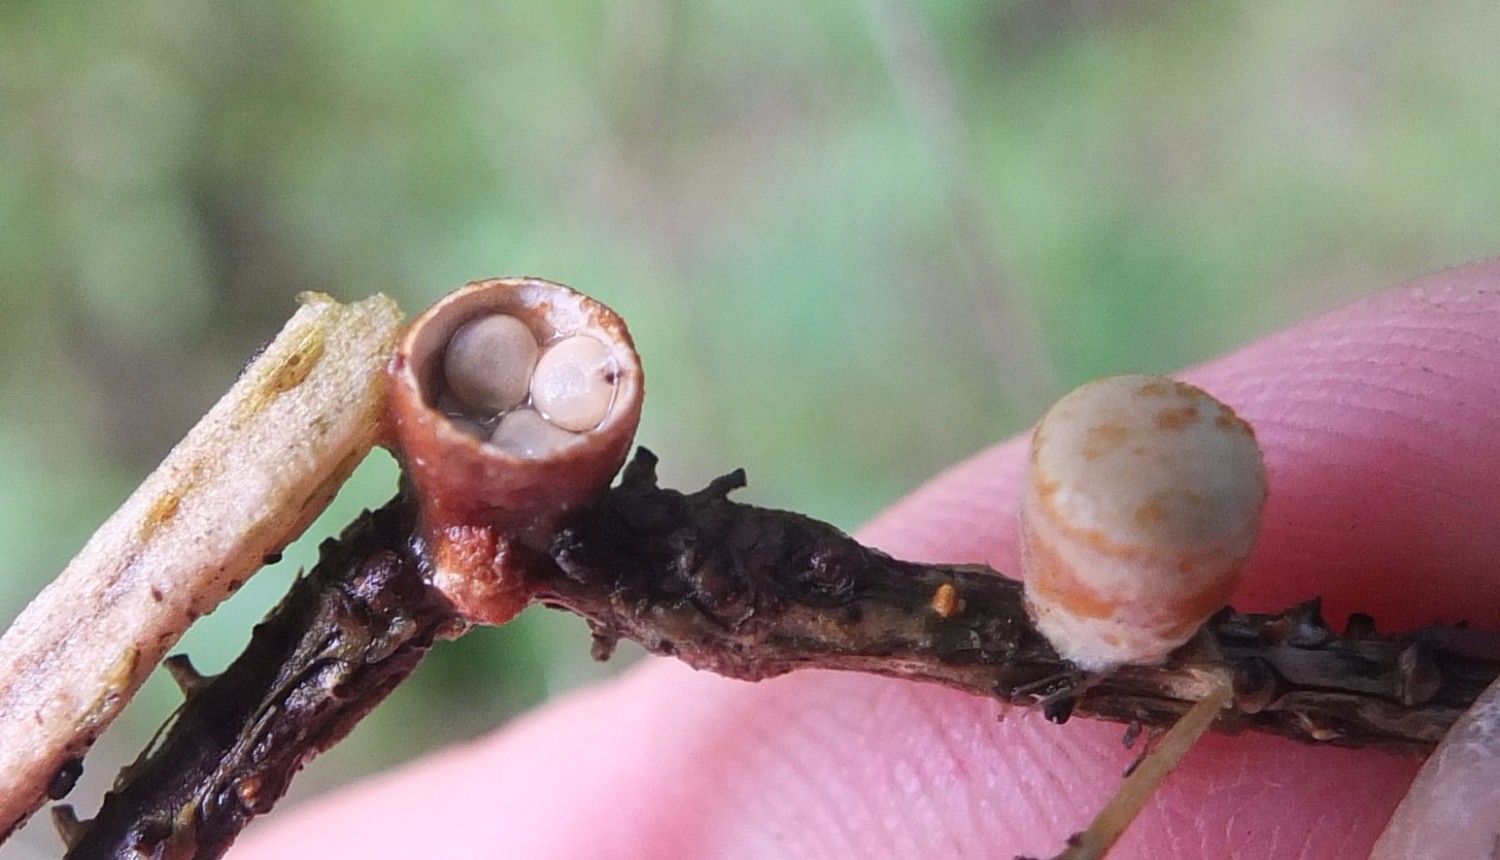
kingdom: Fungi
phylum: Basidiomycota
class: Agaricomycetes
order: Agaricales
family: Nidulariaceae
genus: Crucibulum
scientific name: Crucibulum crucibuliforme
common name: krukkesvamp
